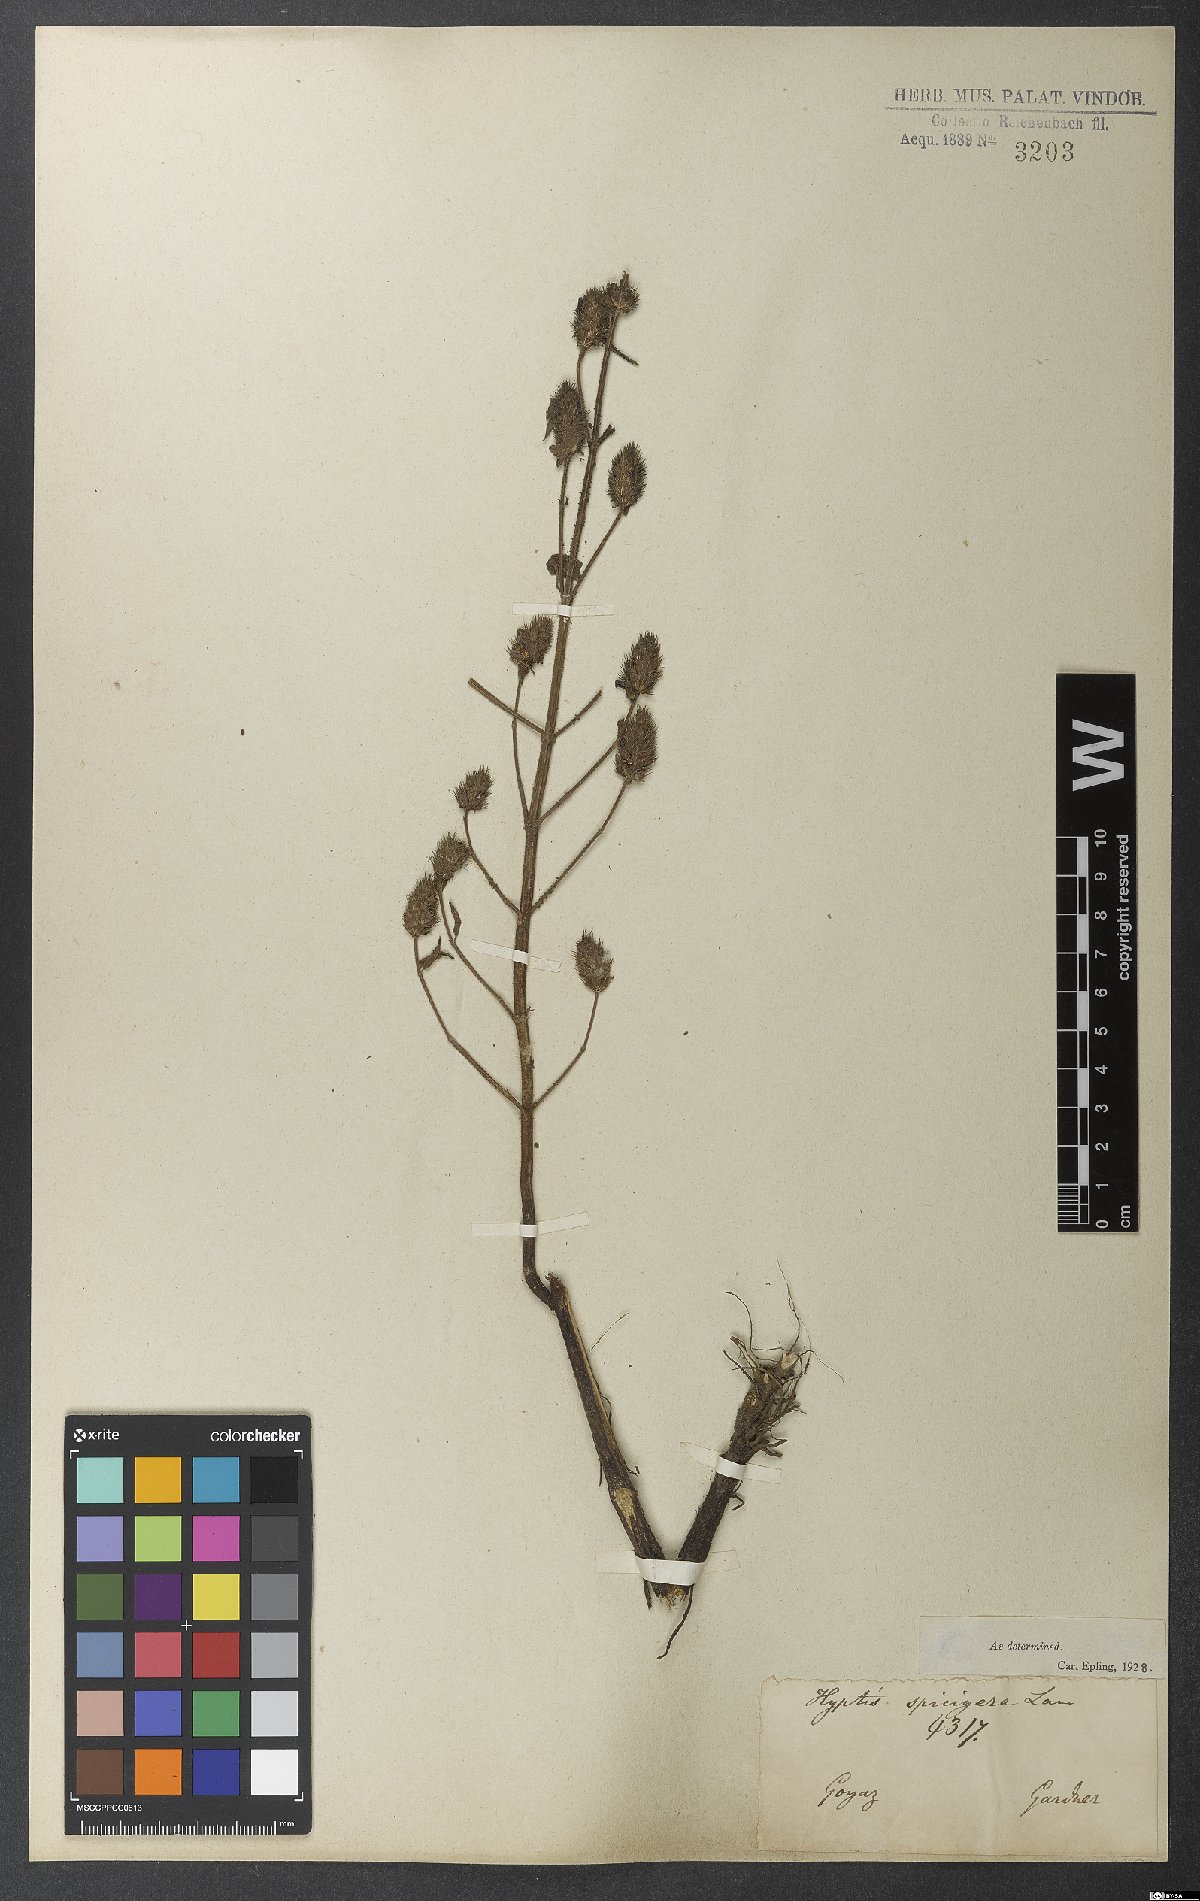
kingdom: Plantae
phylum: Tracheophyta
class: Magnoliopsida
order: Lamiales
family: Lamiaceae
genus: Cantinoa
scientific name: Cantinoa americana
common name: Black-sesame
